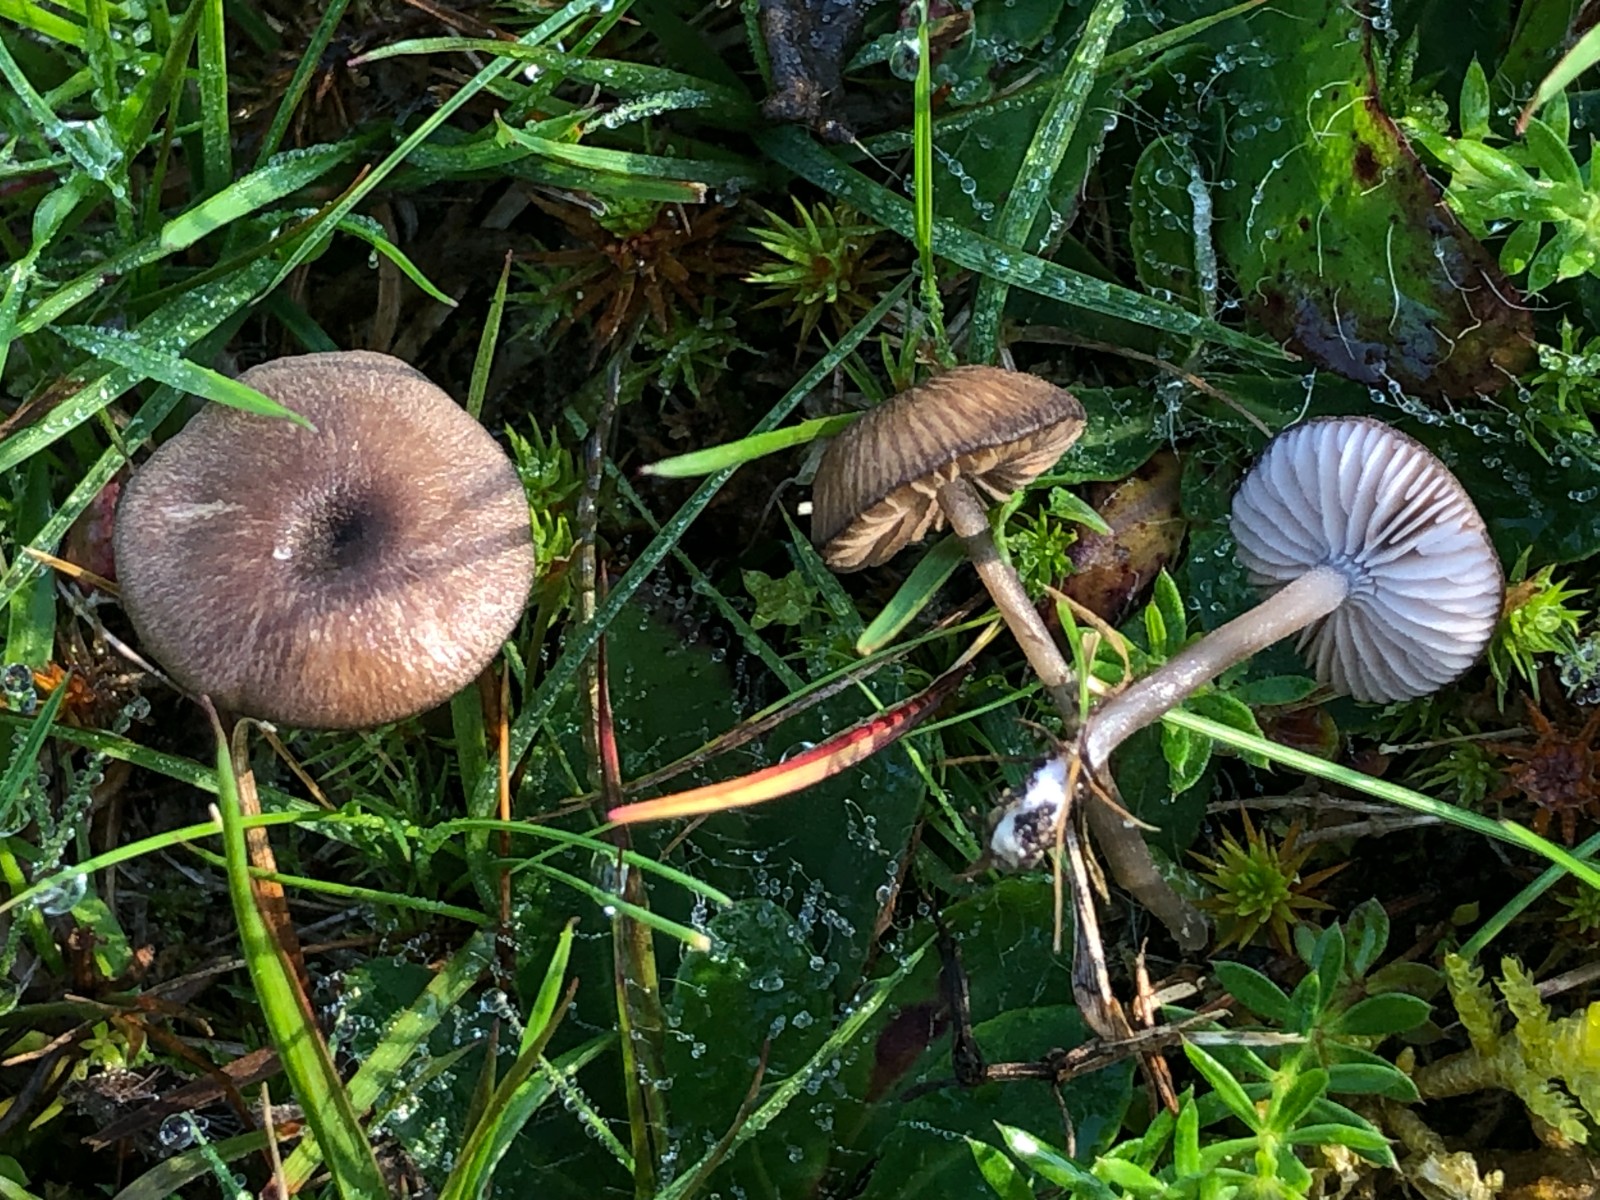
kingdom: Fungi
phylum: Basidiomycota
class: Agaricomycetes
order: Agaricales
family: Entolomataceae
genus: Entoloma
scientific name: Entoloma
